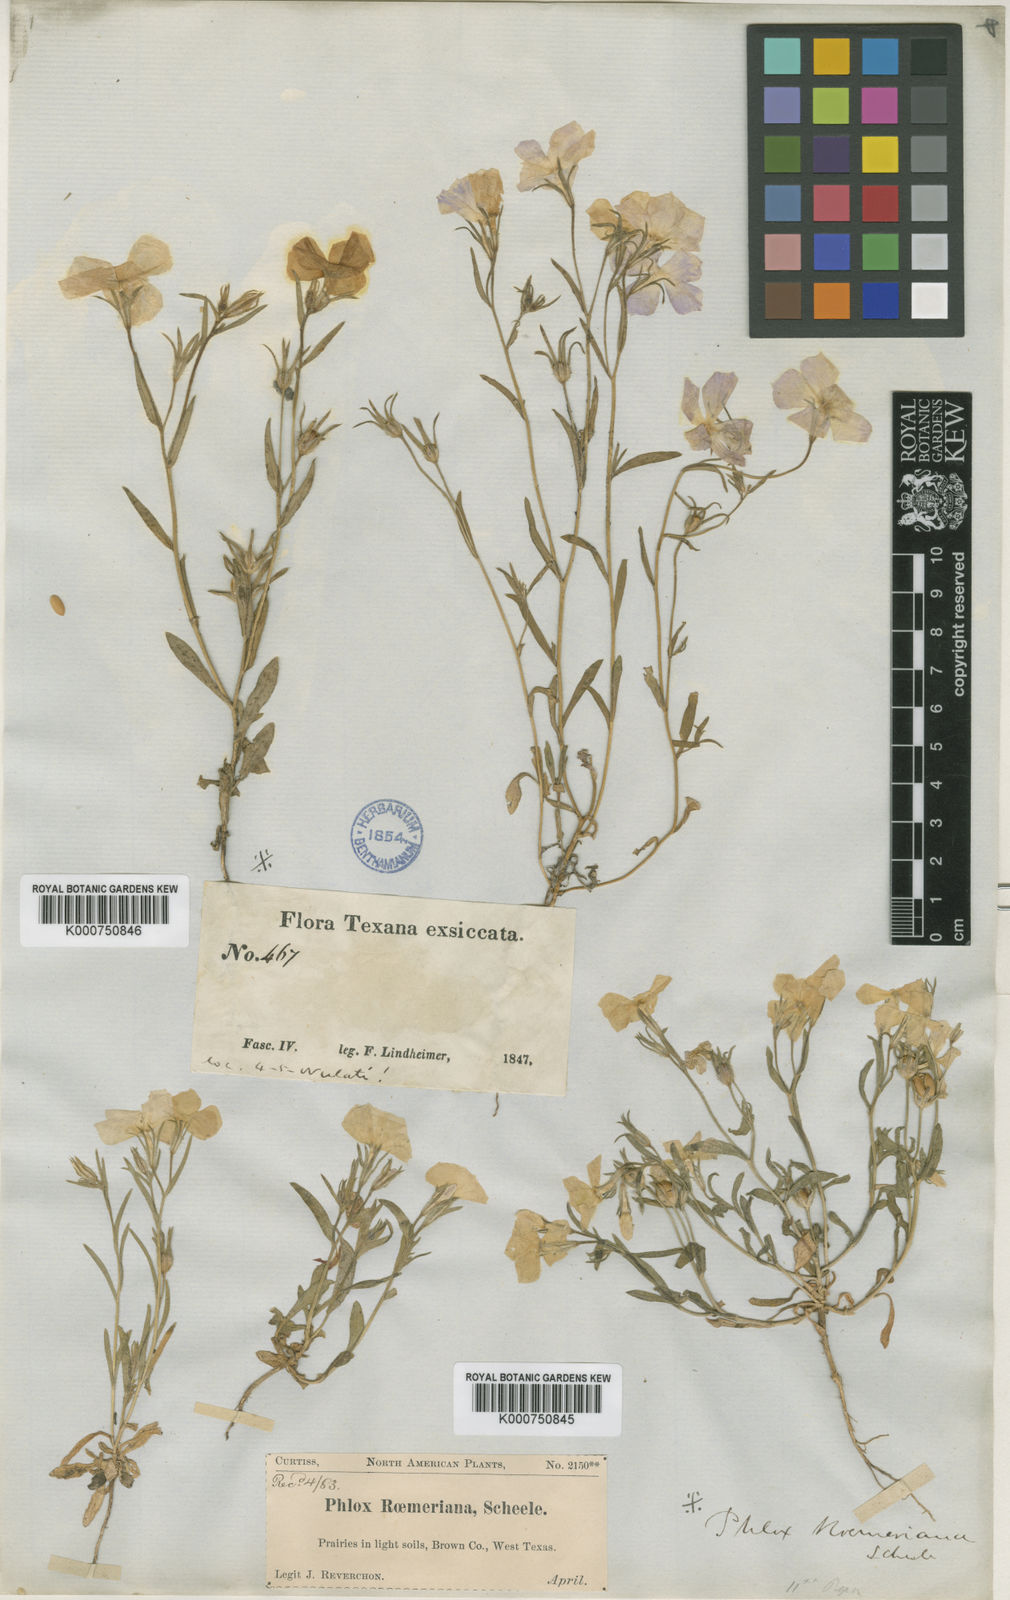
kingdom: Plantae
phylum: Tracheophyta
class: Magnoliopsida
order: Ericales
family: Polemoniaceae
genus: Phlox
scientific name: Phlox roemeriana
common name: Roemer's phlox
